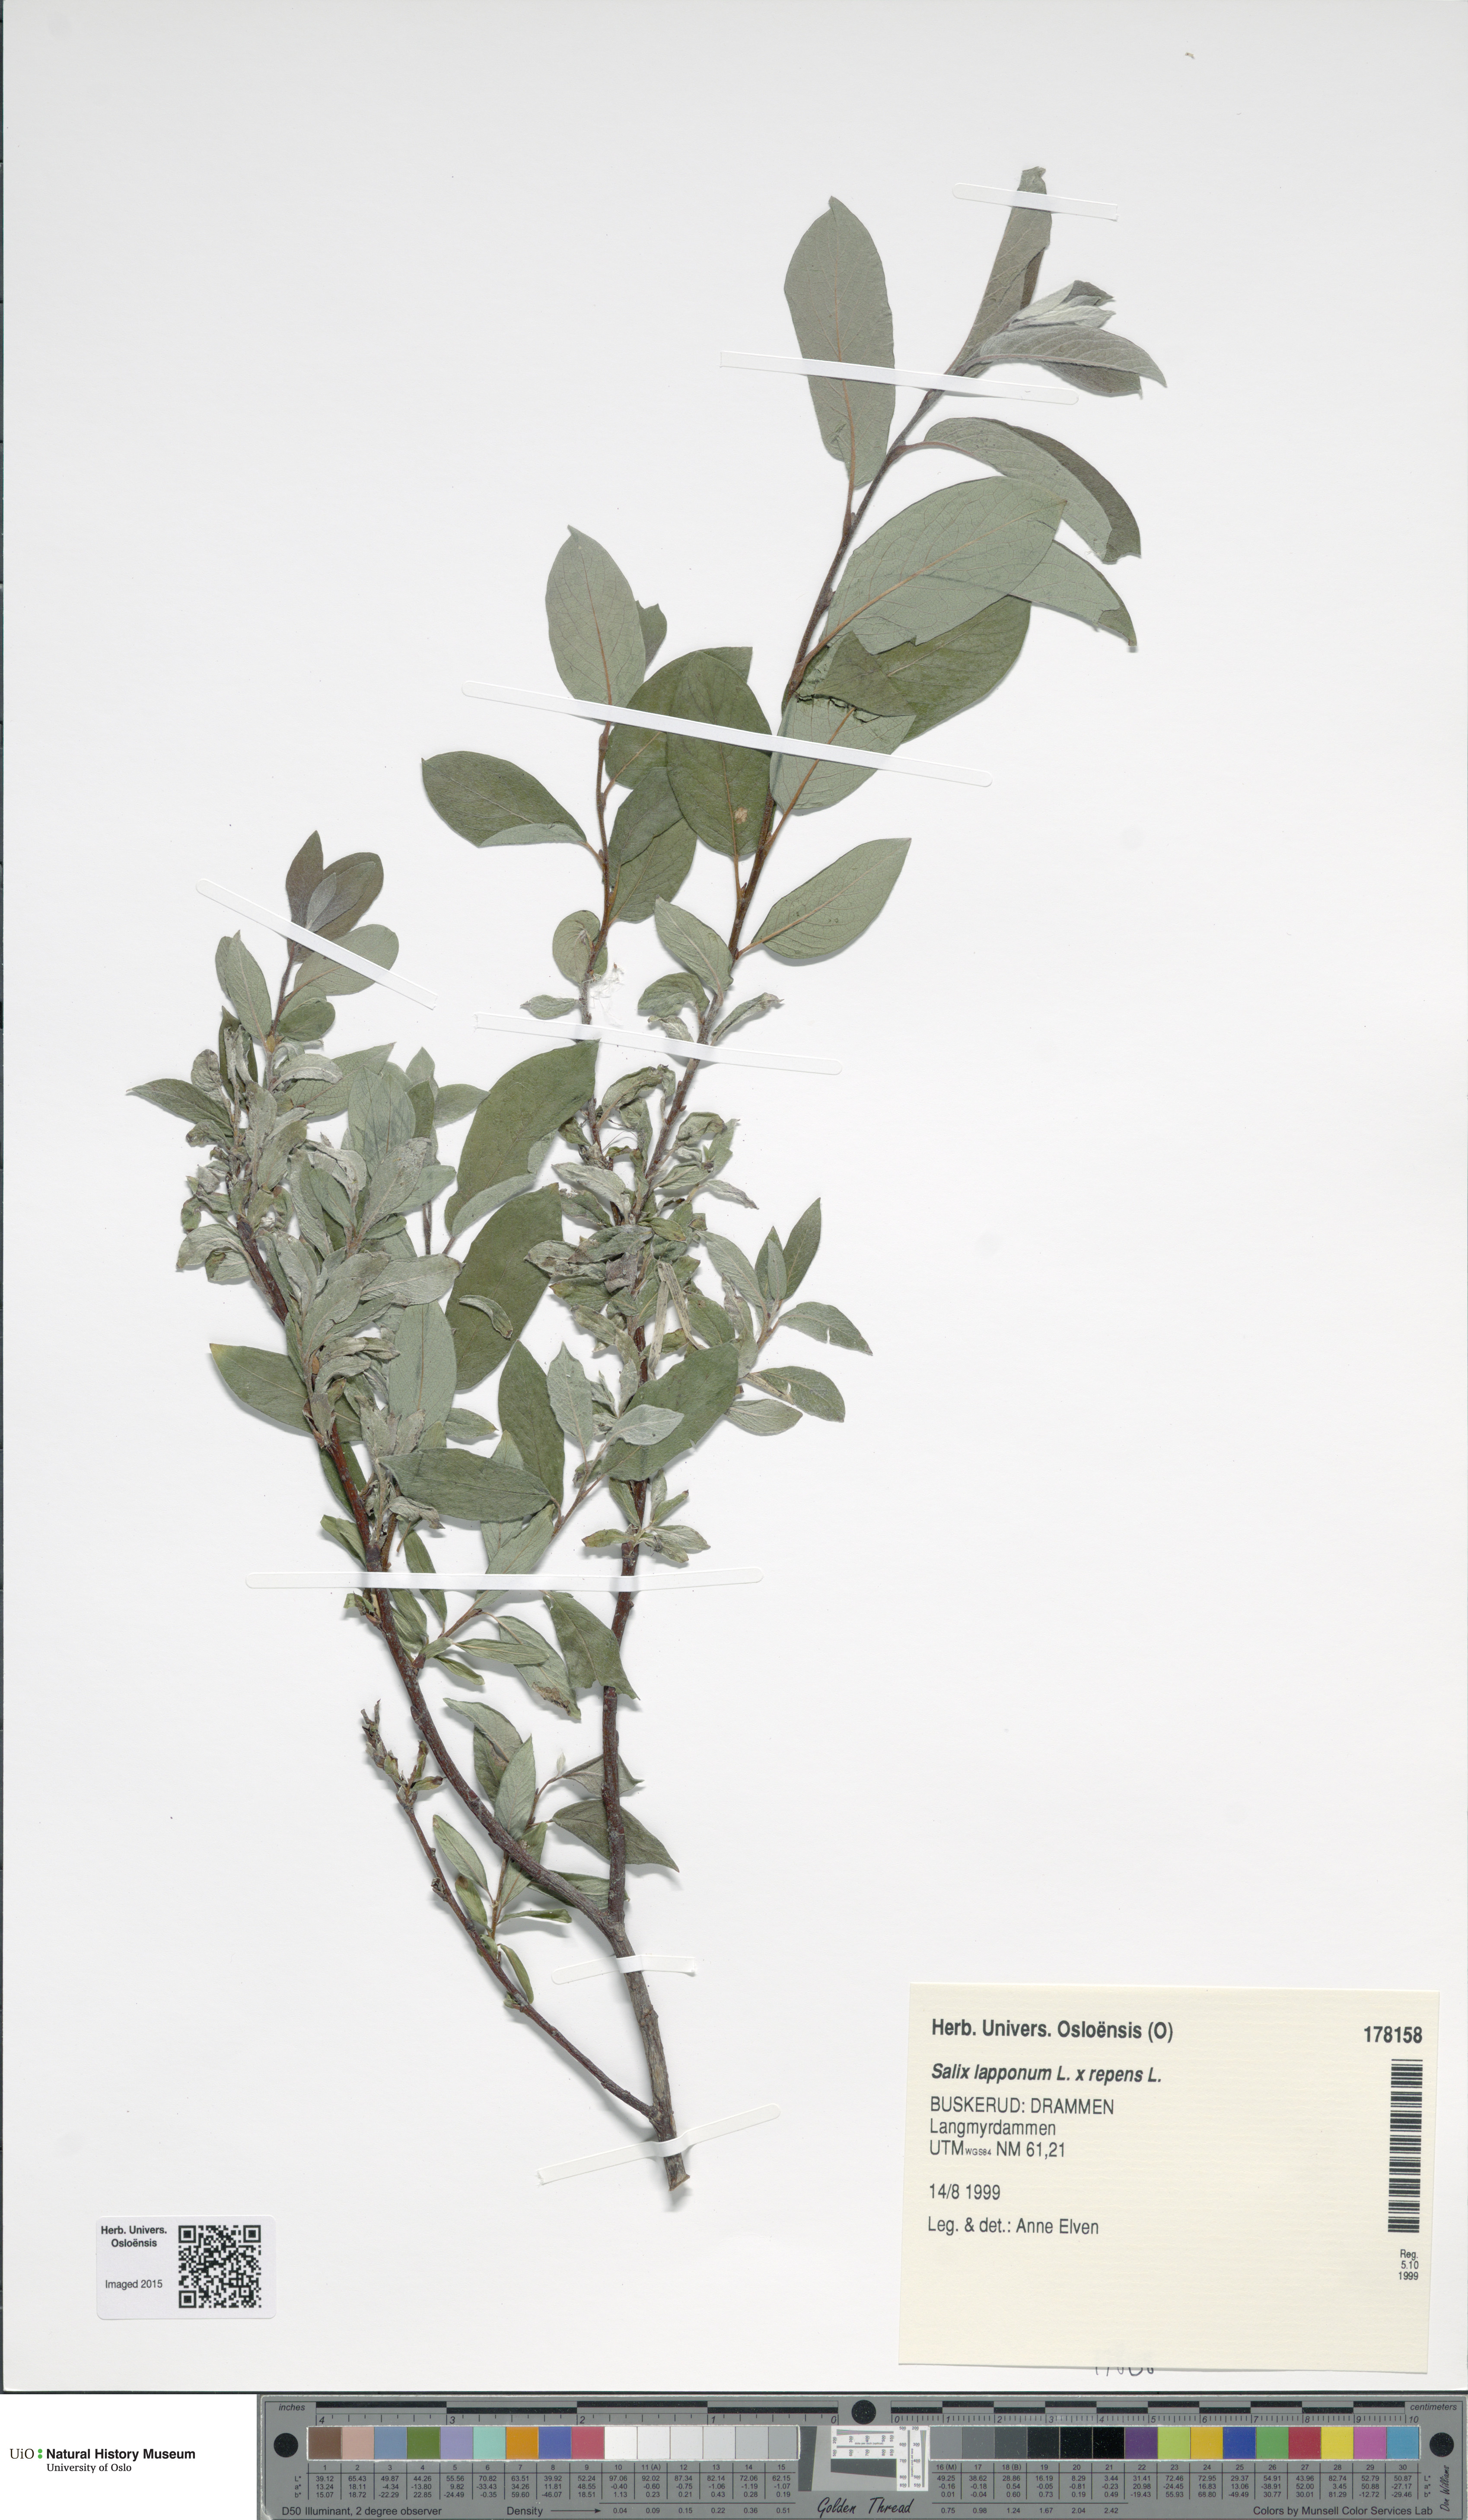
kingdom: Plantae
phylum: Tracheophyta
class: Magnoliopsida
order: Malpighiales
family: Salicaceae
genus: Salix
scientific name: Salix
